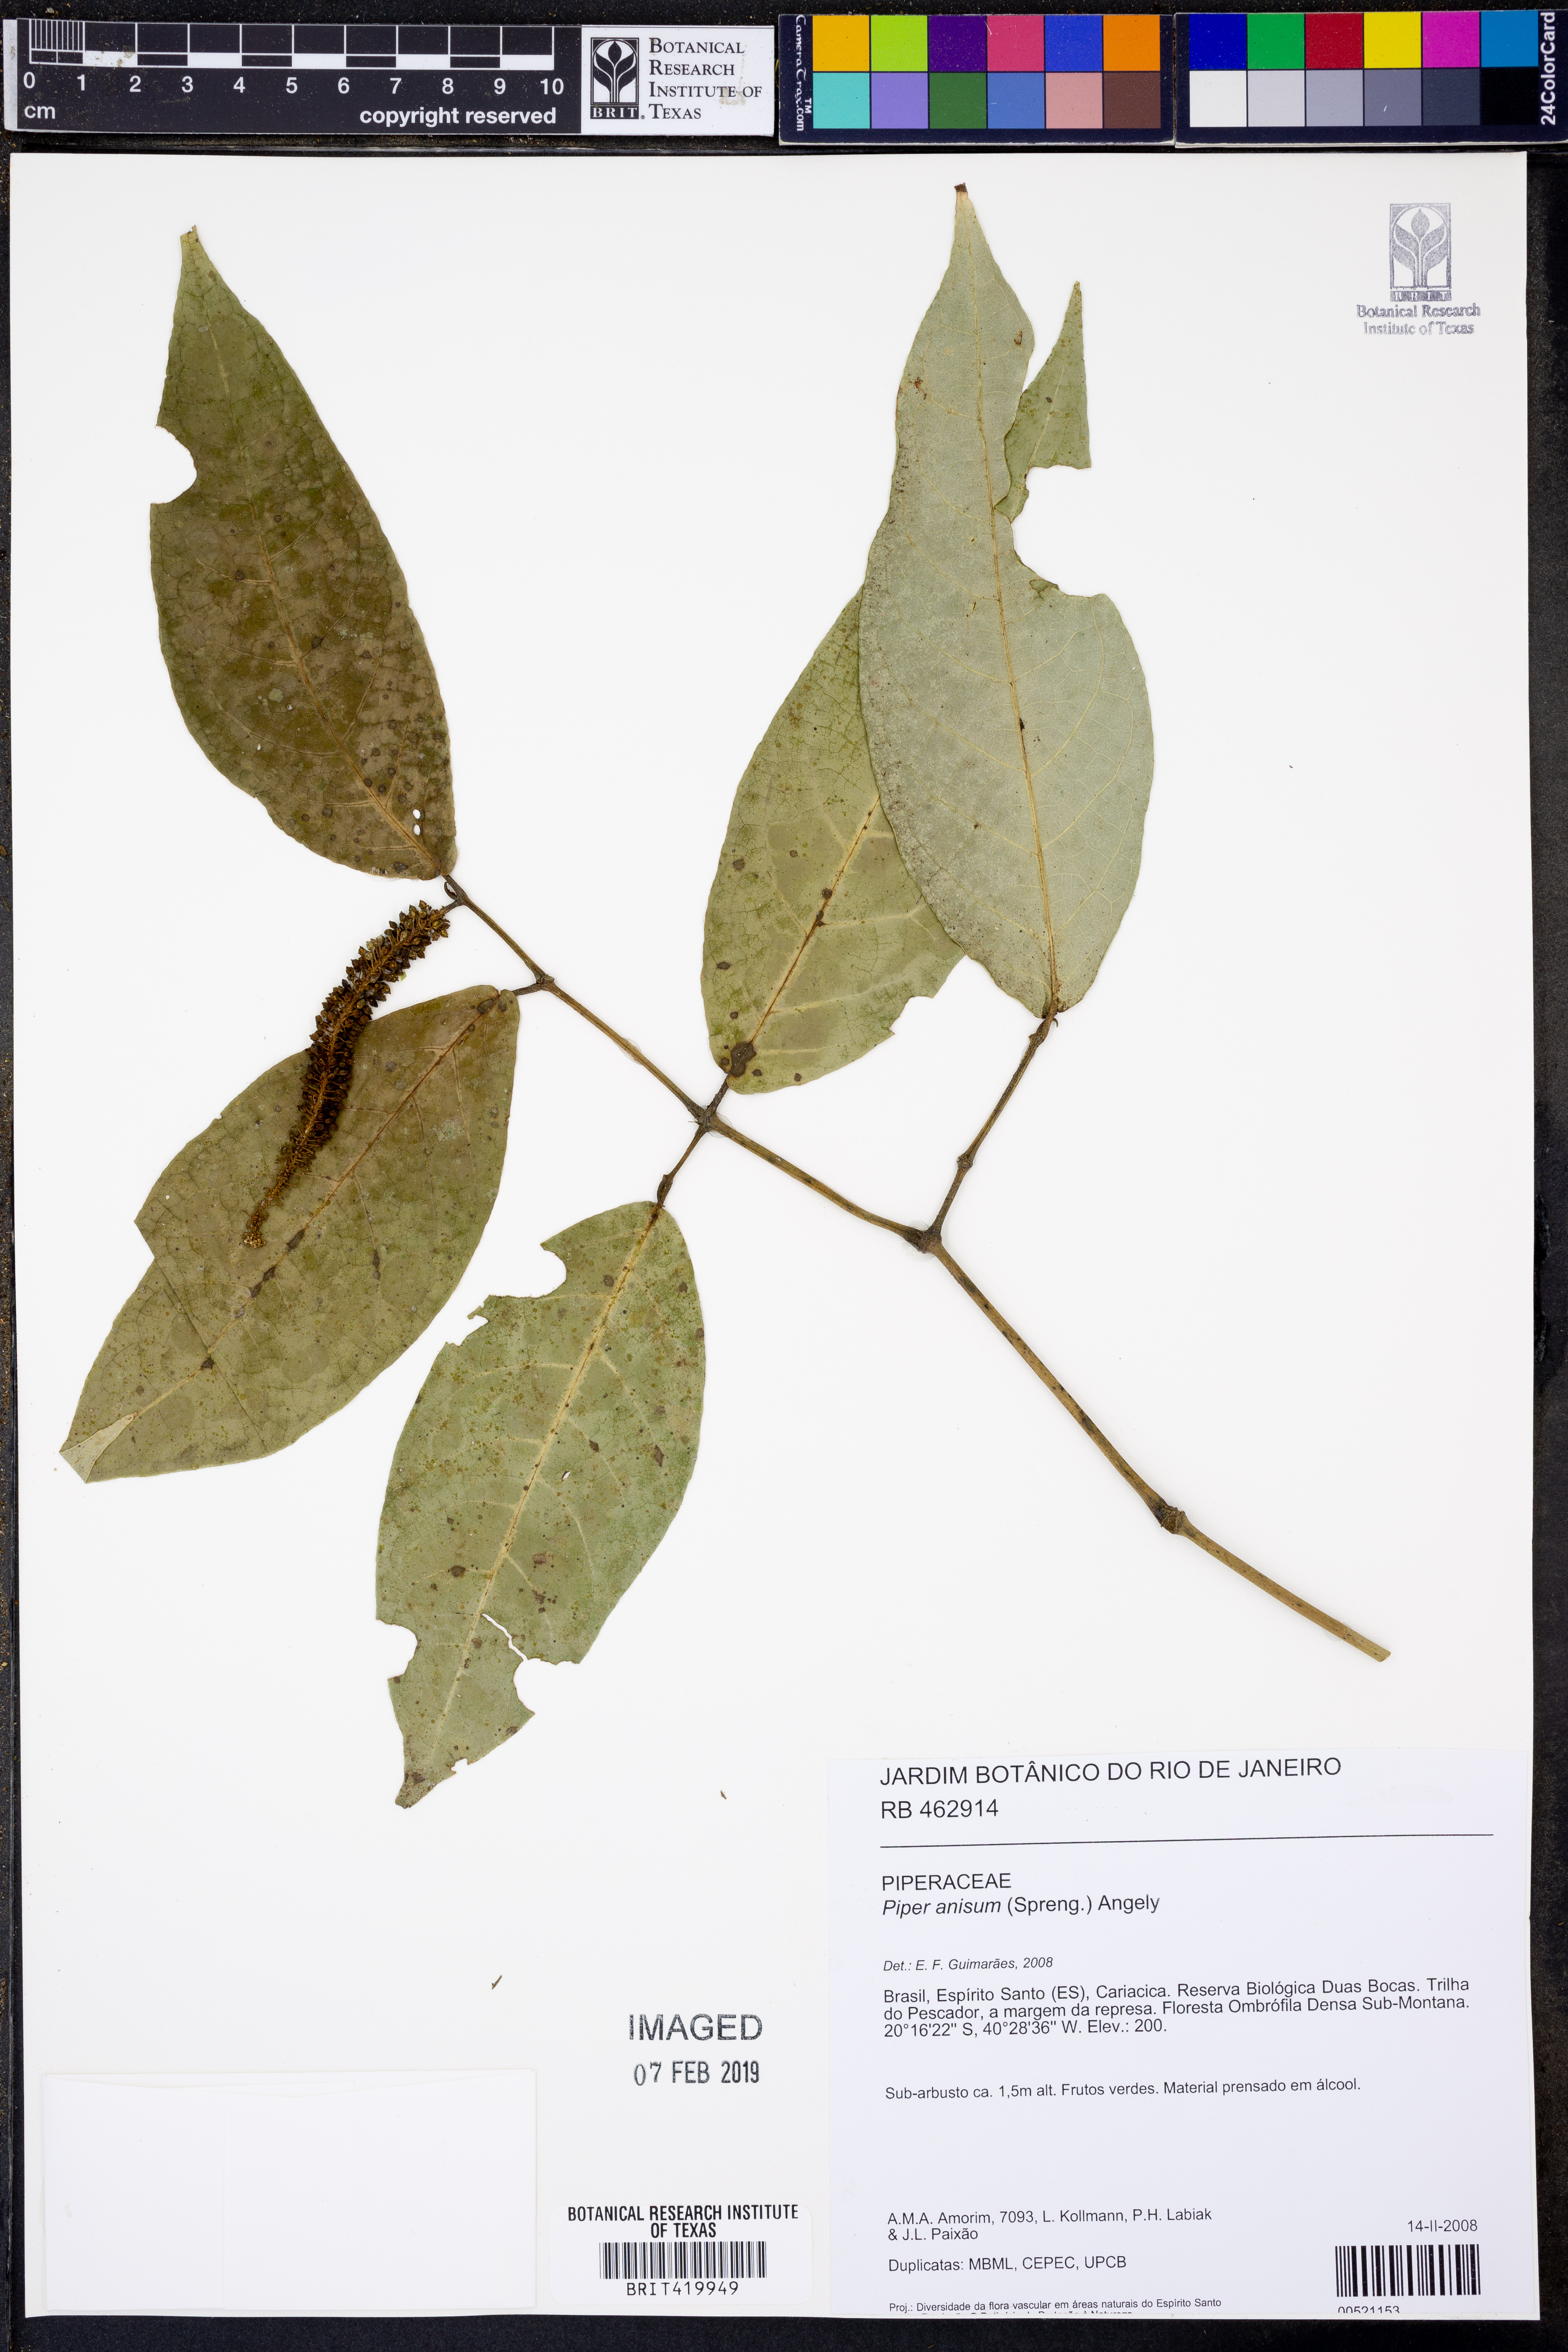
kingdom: Plantae
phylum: Tracheophyta
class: Magnoliopsida
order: Piperales
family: Piperaceae
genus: Piper
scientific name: Piper anisum
